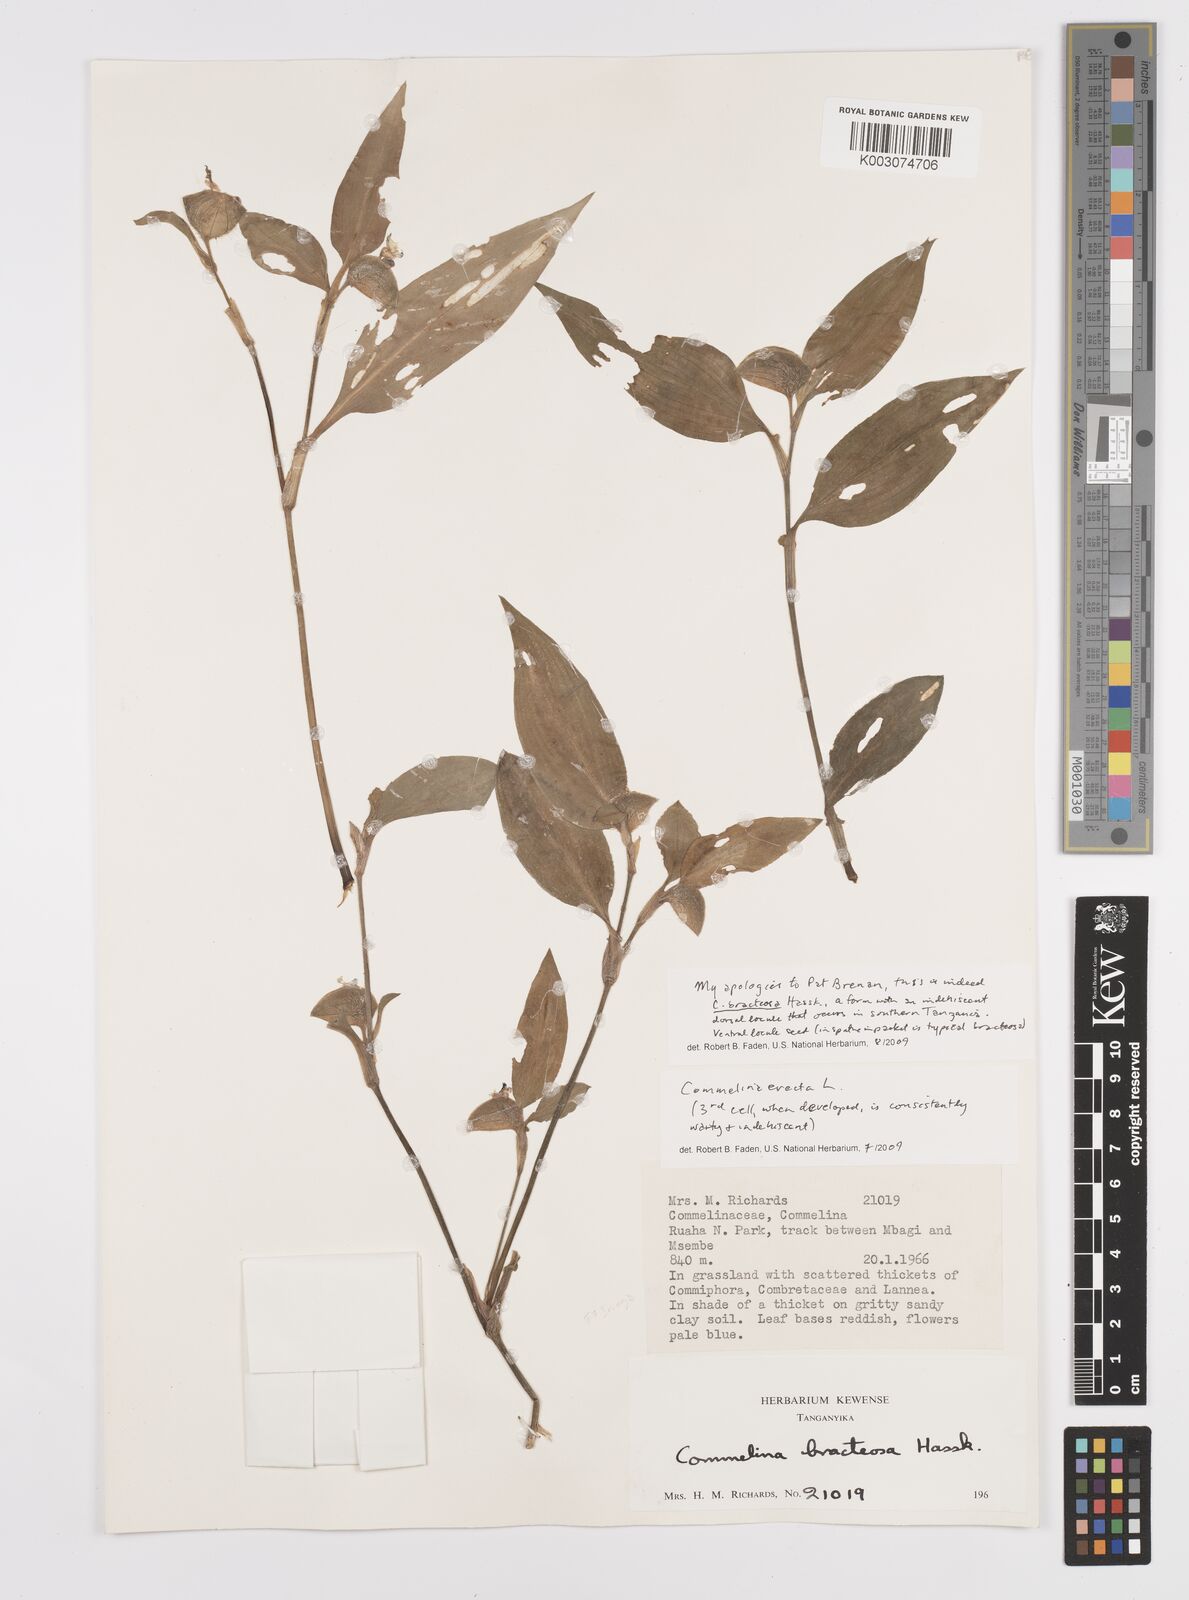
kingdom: Plantae
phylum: Tracheophyta
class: Liliopsida
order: Commelinales
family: Commelinaceae
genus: Commelina
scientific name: Commelina bracteosa
